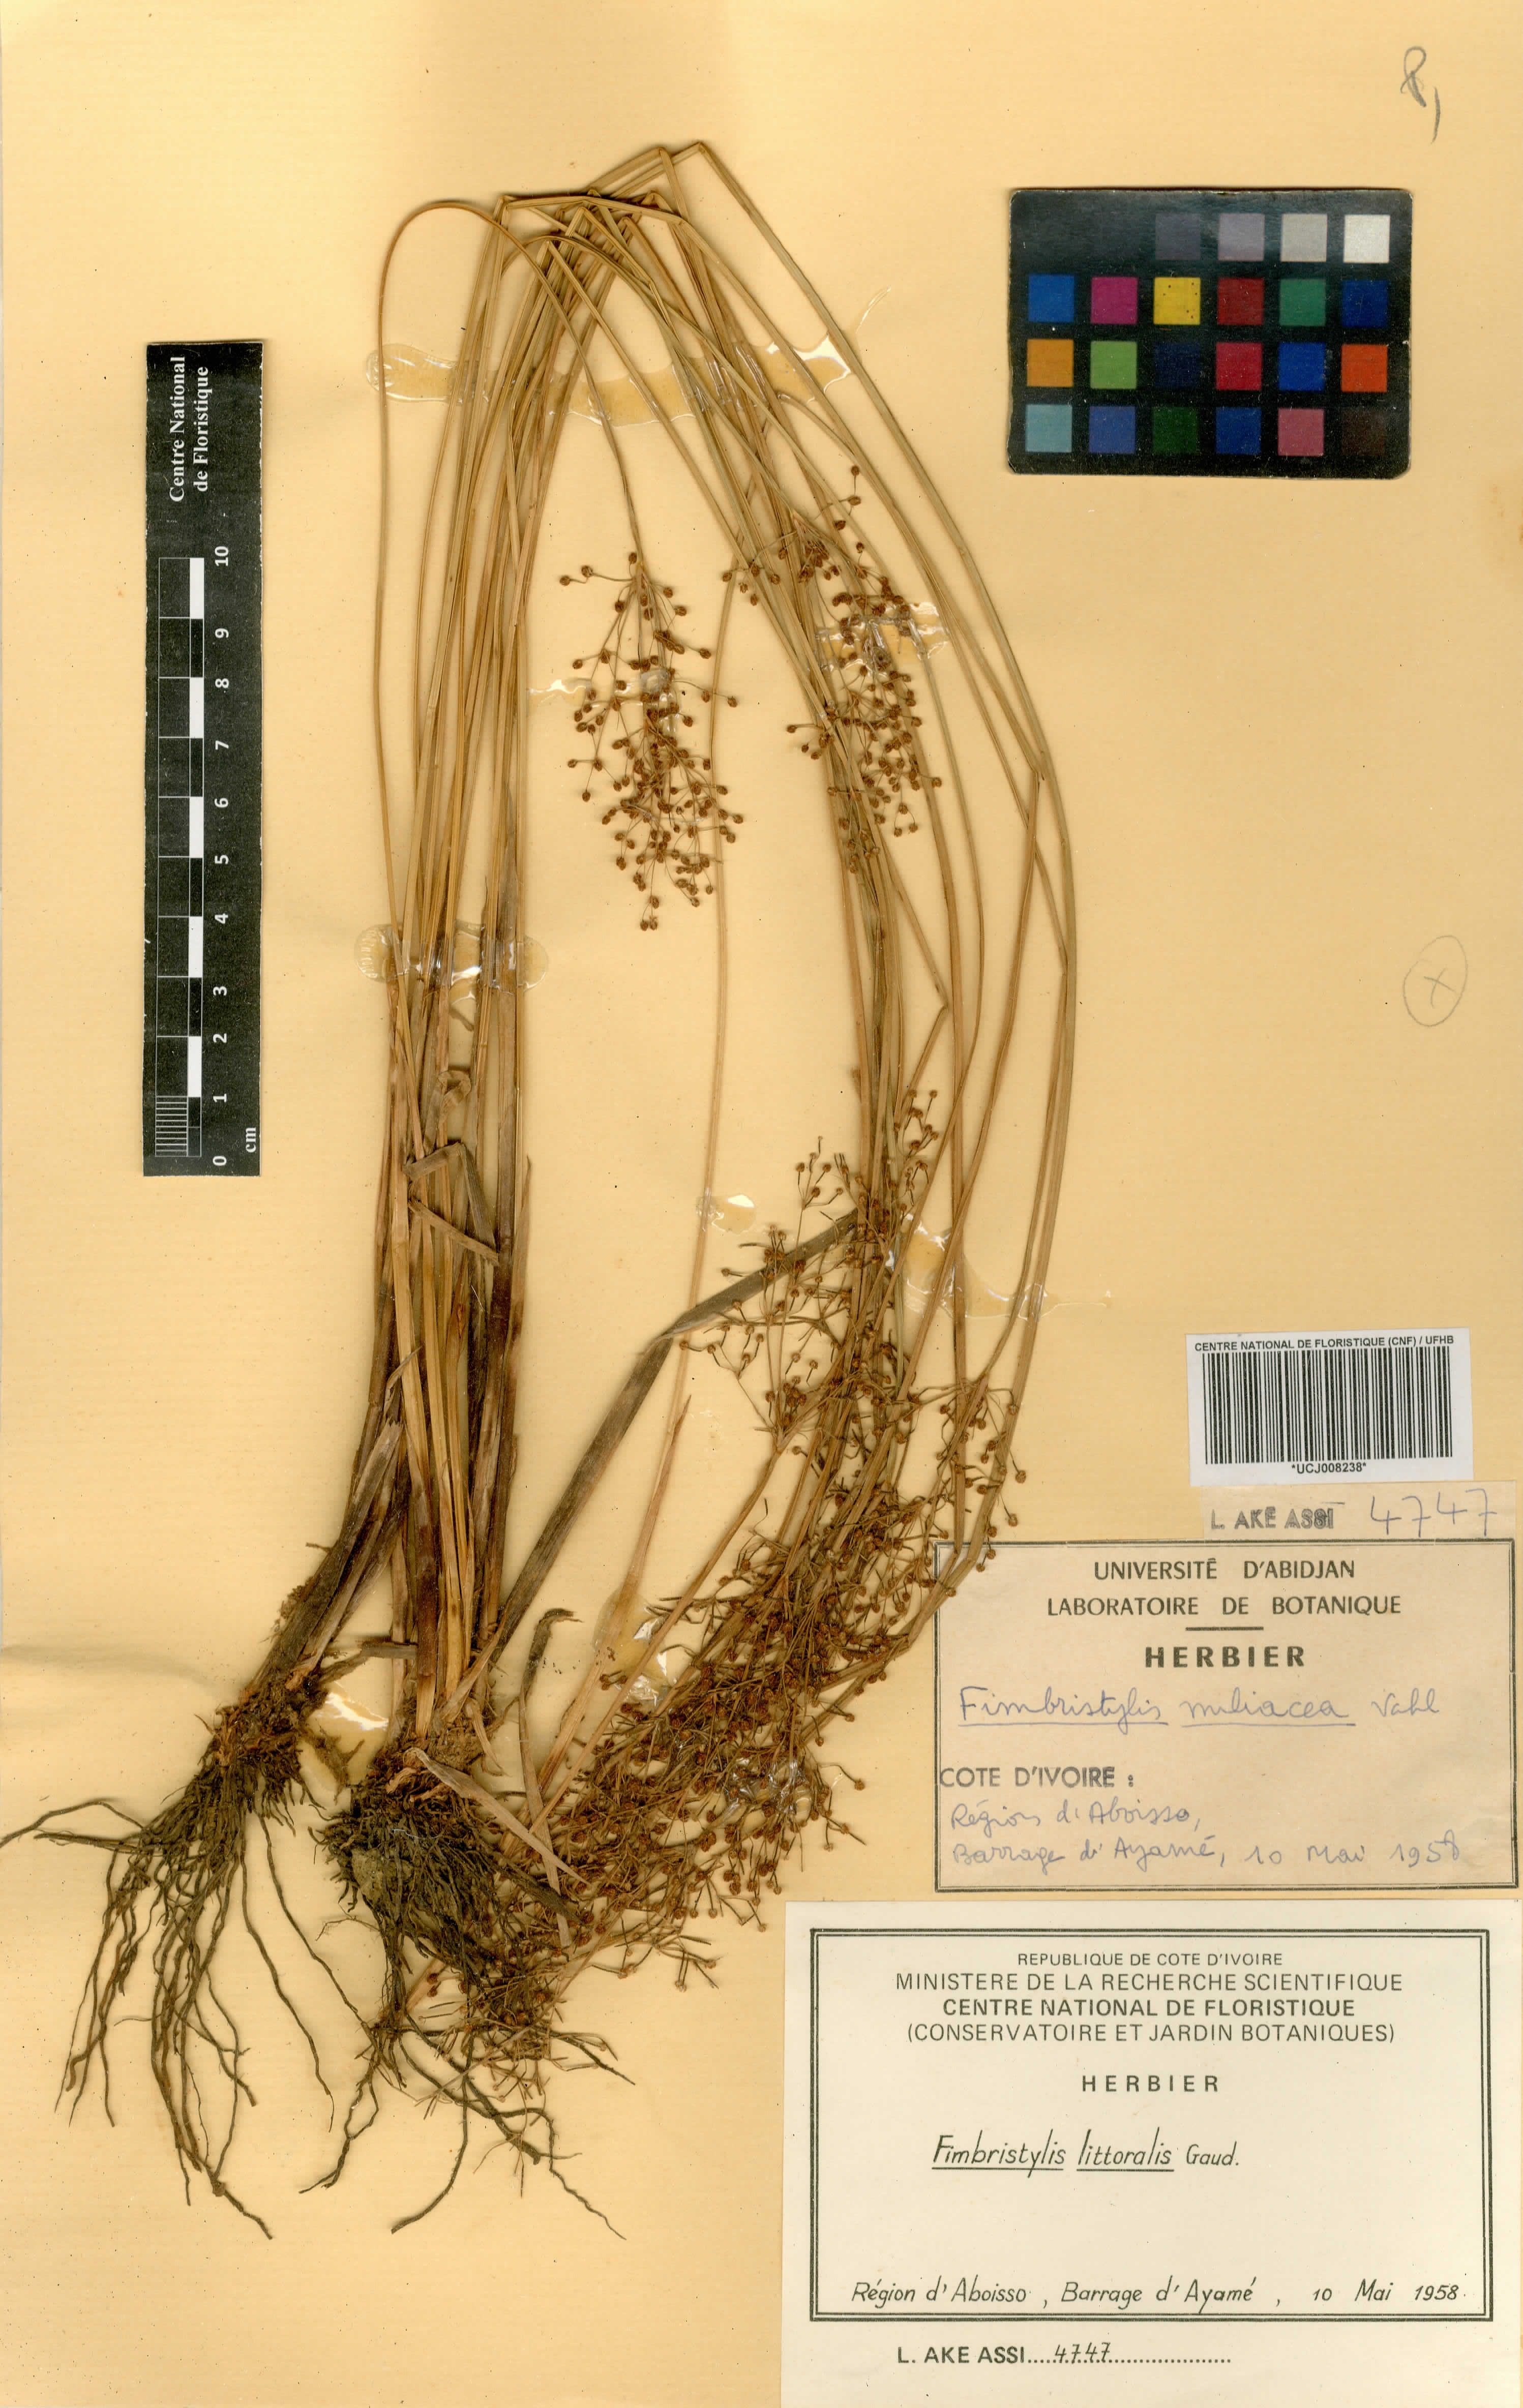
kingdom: Plantae
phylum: Tracheophyta
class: Liliopsida
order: Poales
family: Poaceae
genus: Leersia
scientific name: Leersia hexandra
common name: Southern cut grass
